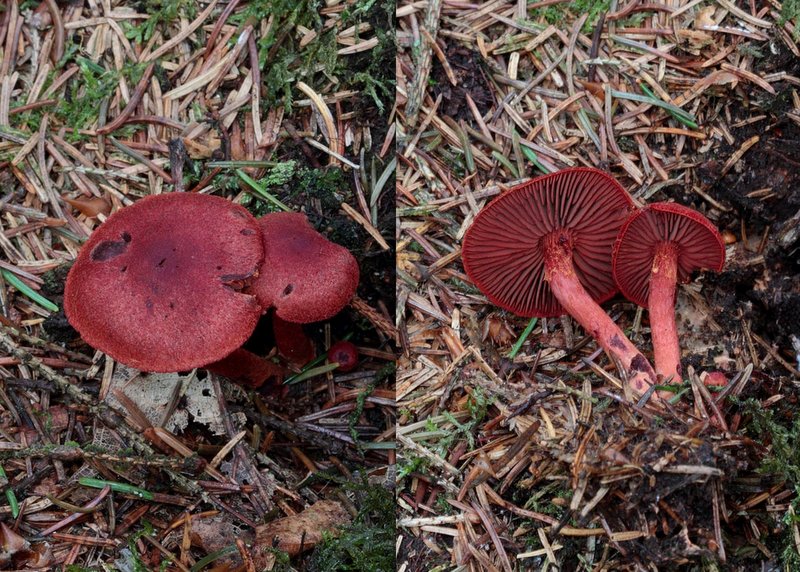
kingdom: Fungi
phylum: Basidiomycota
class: Agaricomycetes
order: Agaricales
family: Cortinariaceae
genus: Cortinarius
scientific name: Cortinarius sanguineus
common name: blodrød slørhat
